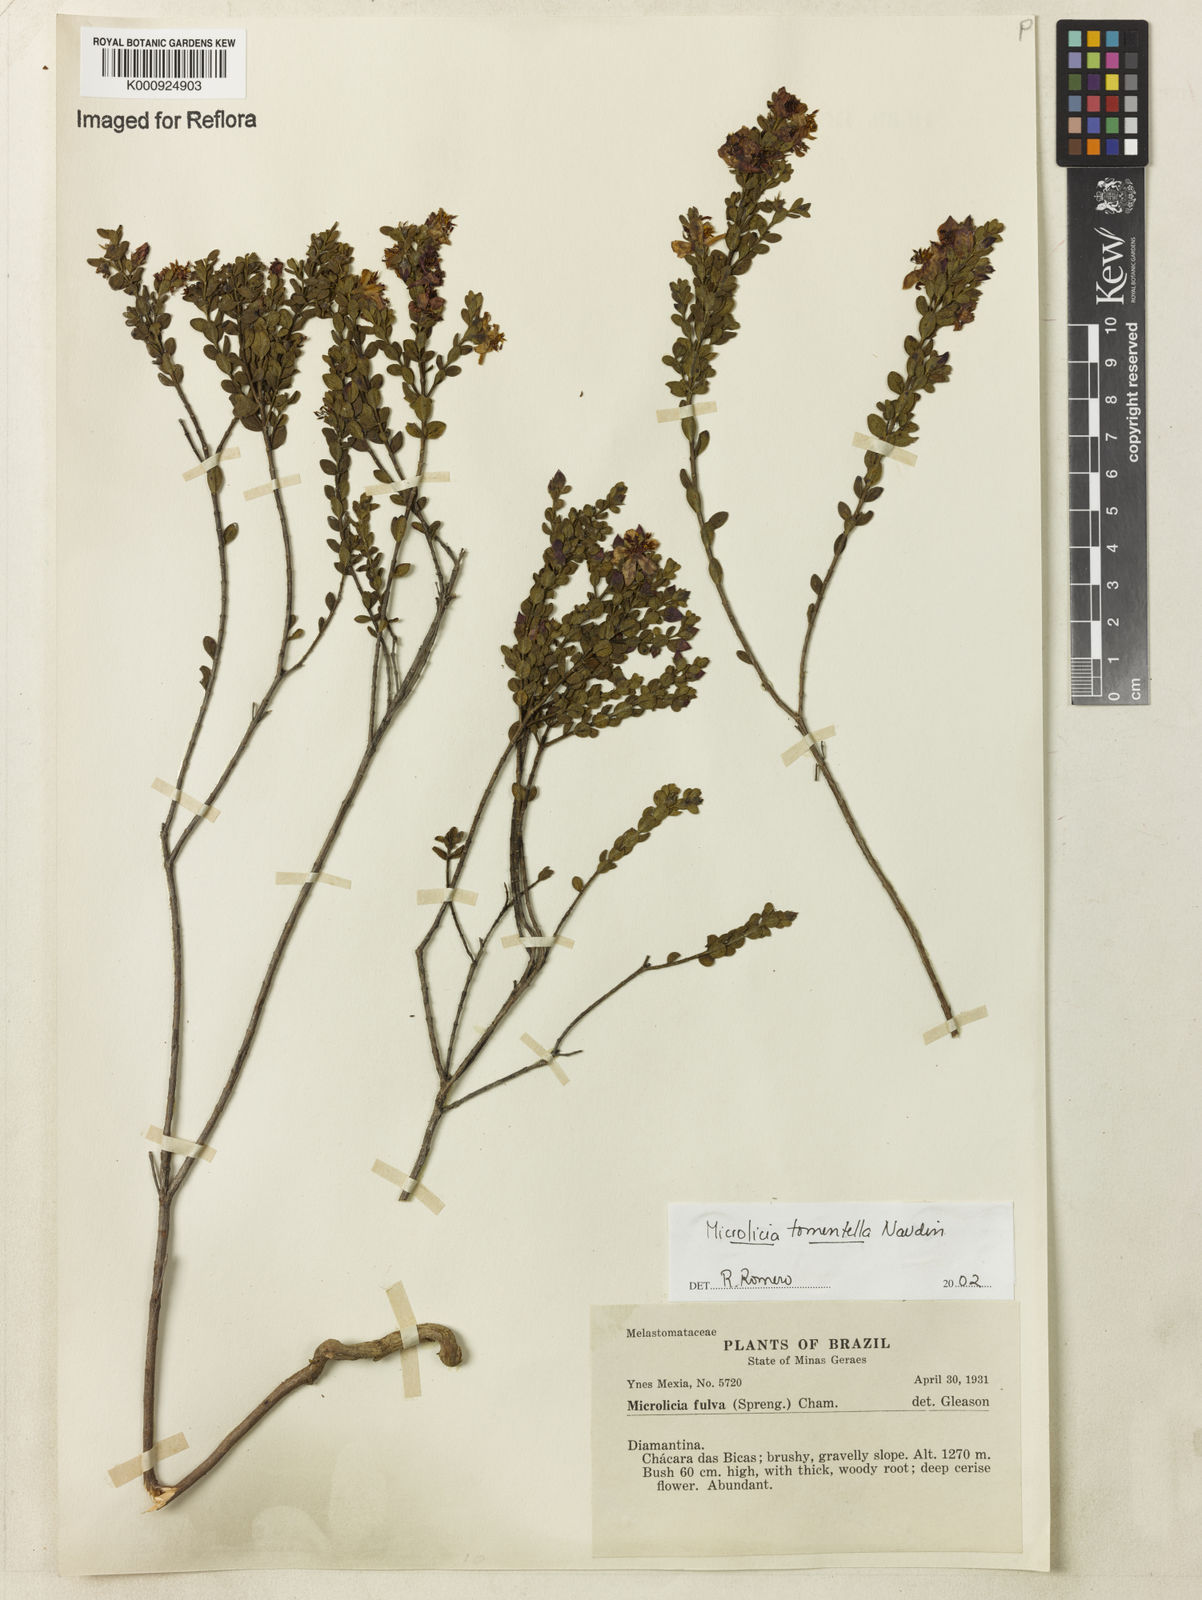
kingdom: Plantae
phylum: Tracheophyta
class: Magnoliopsida
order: Myrtales
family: Melastomataceae
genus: Microlicia
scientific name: Microlicia tomentella
